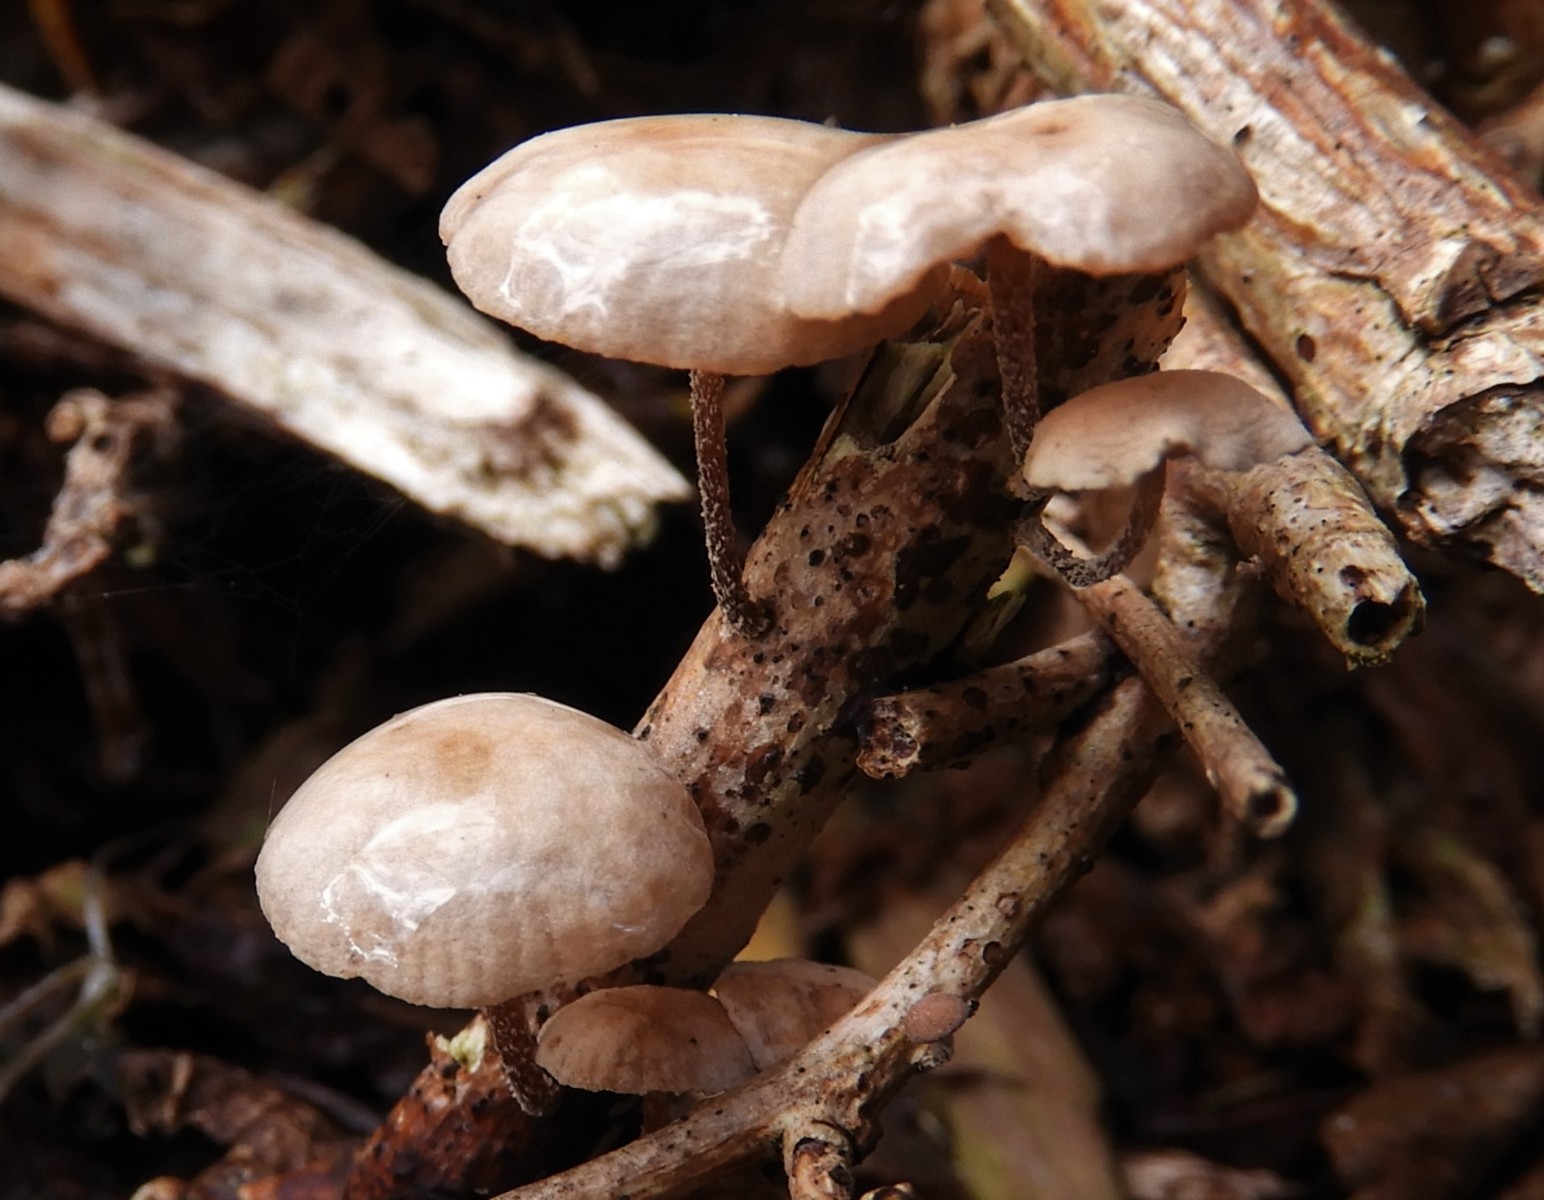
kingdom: Fungi
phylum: Basidiomycota
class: Agaricomycetes
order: Agaricales
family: Omphalotaceae
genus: Collybiopsis
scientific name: Collybiopsis ramealis
